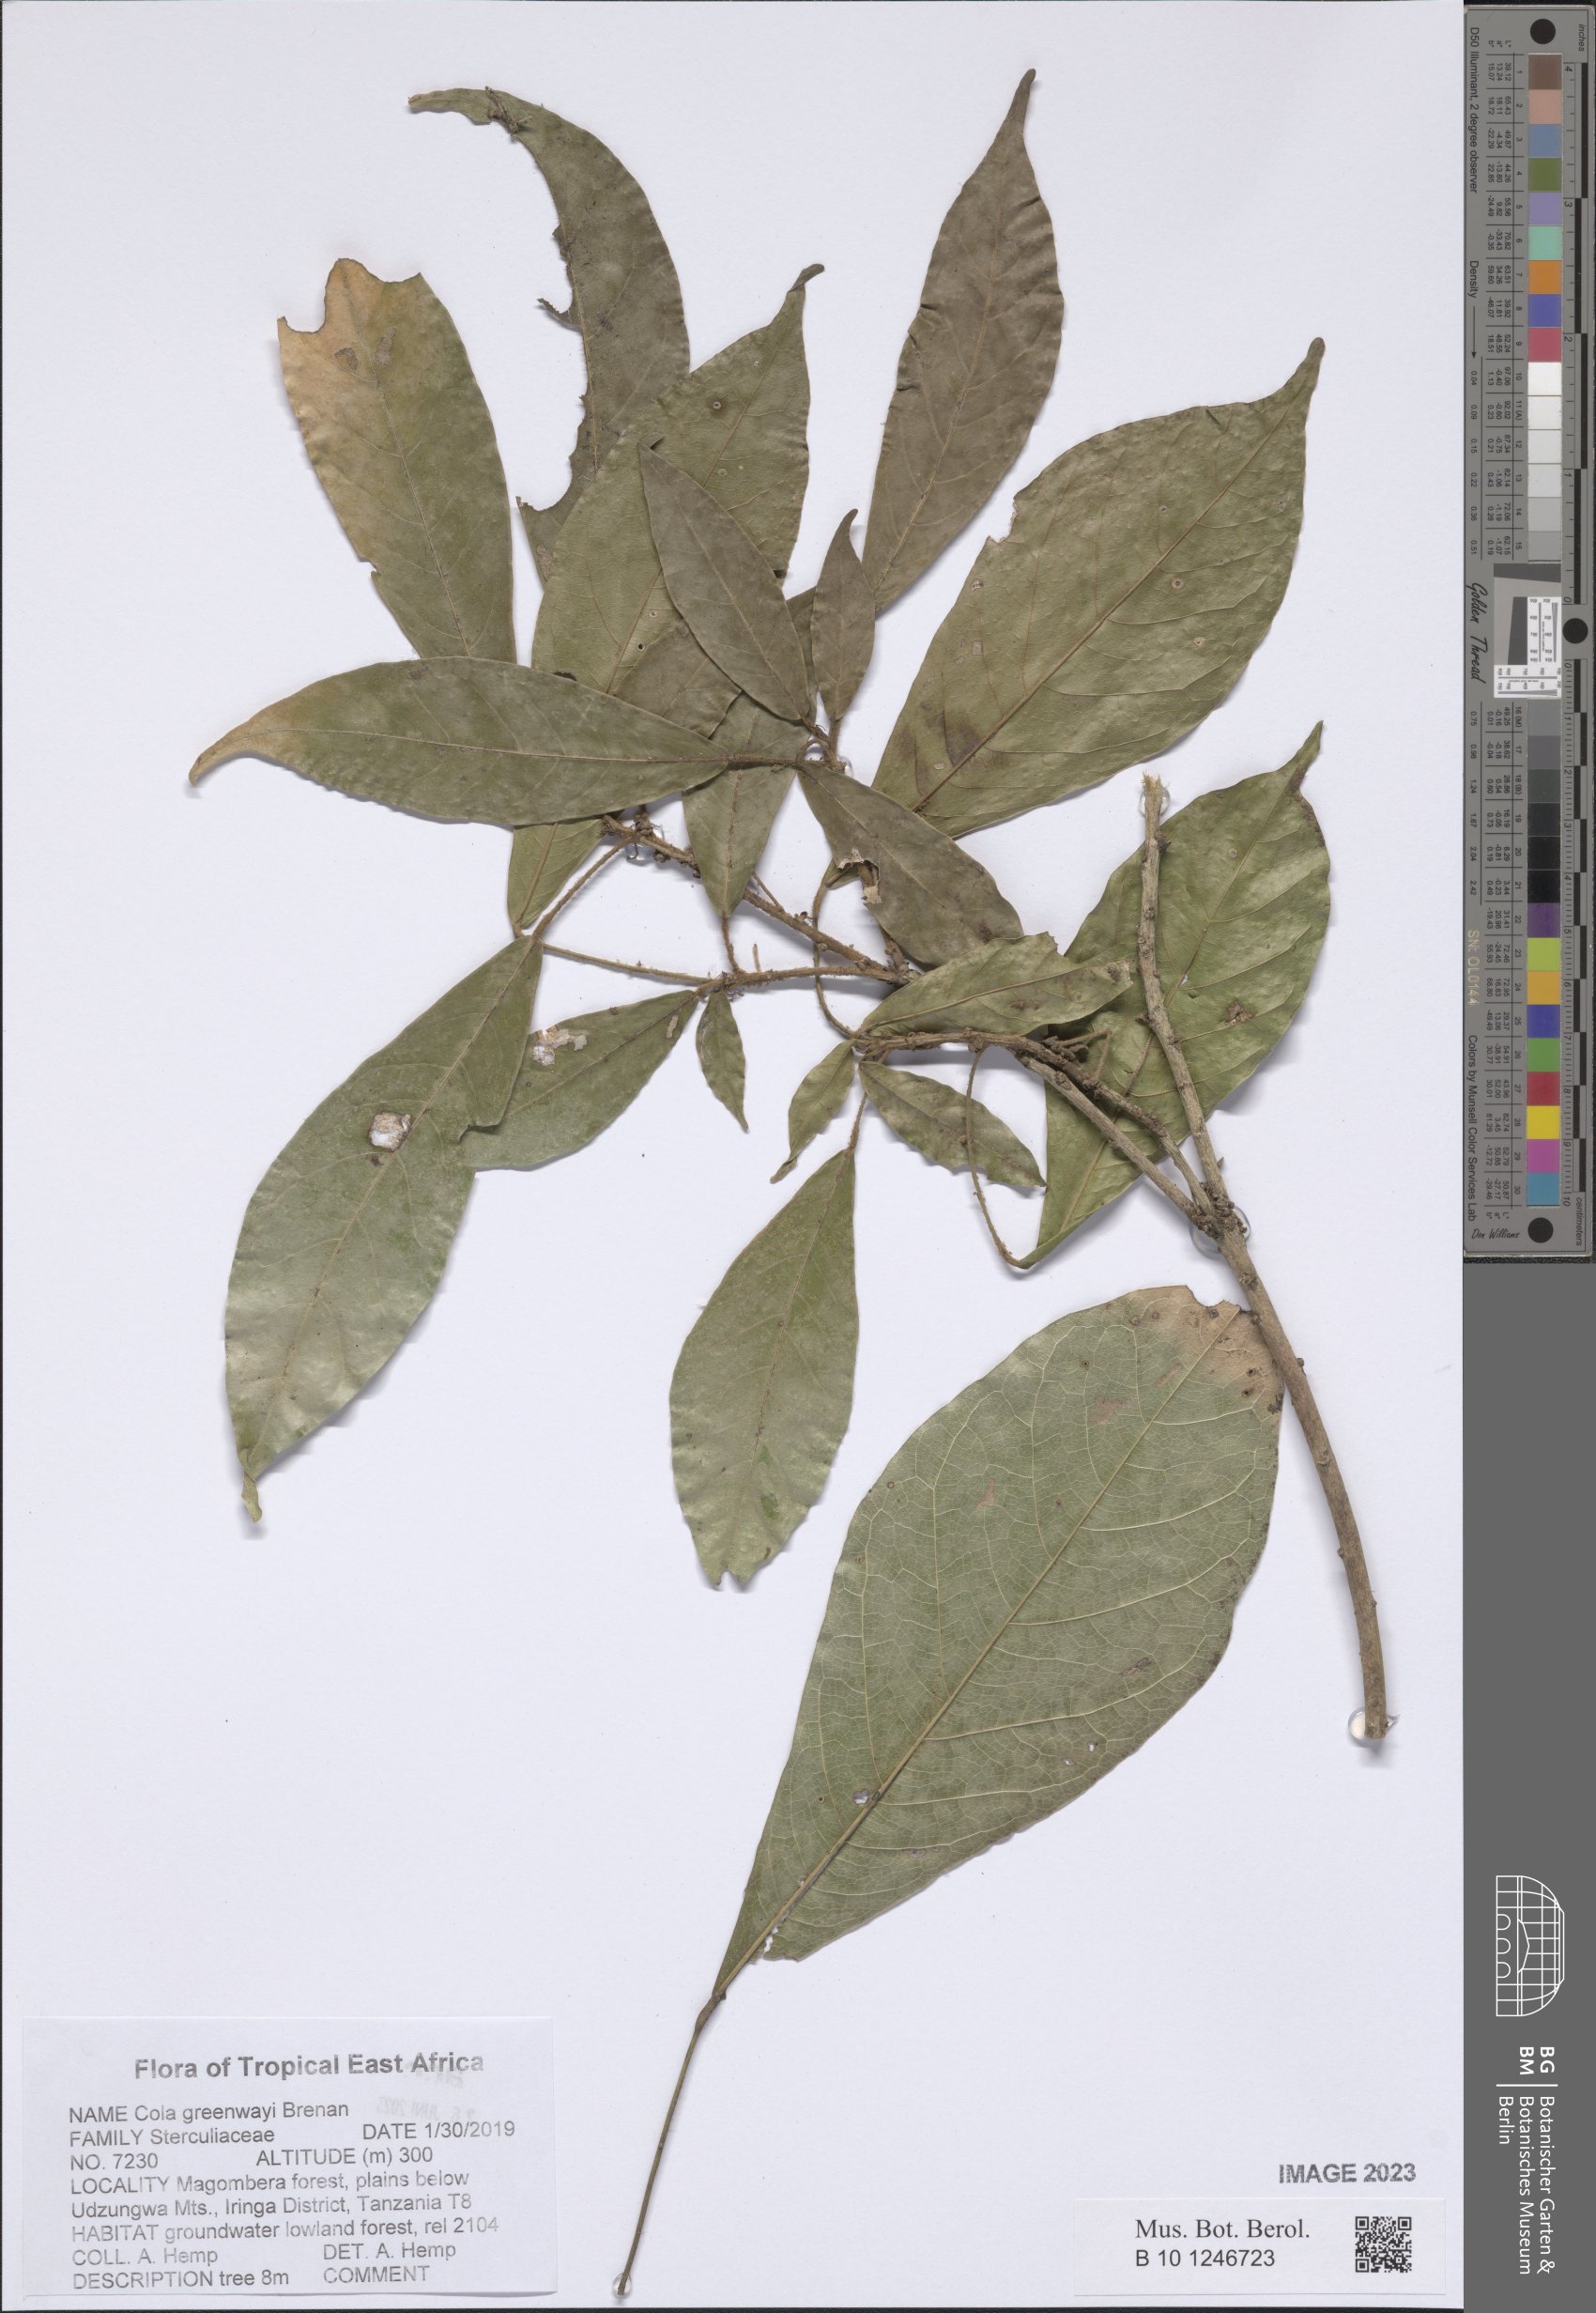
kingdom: Plantae
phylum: Tracheophyta
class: Magnoliopsida
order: Malvales
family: Malvaceae
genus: Cola
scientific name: Cola greenwayi
